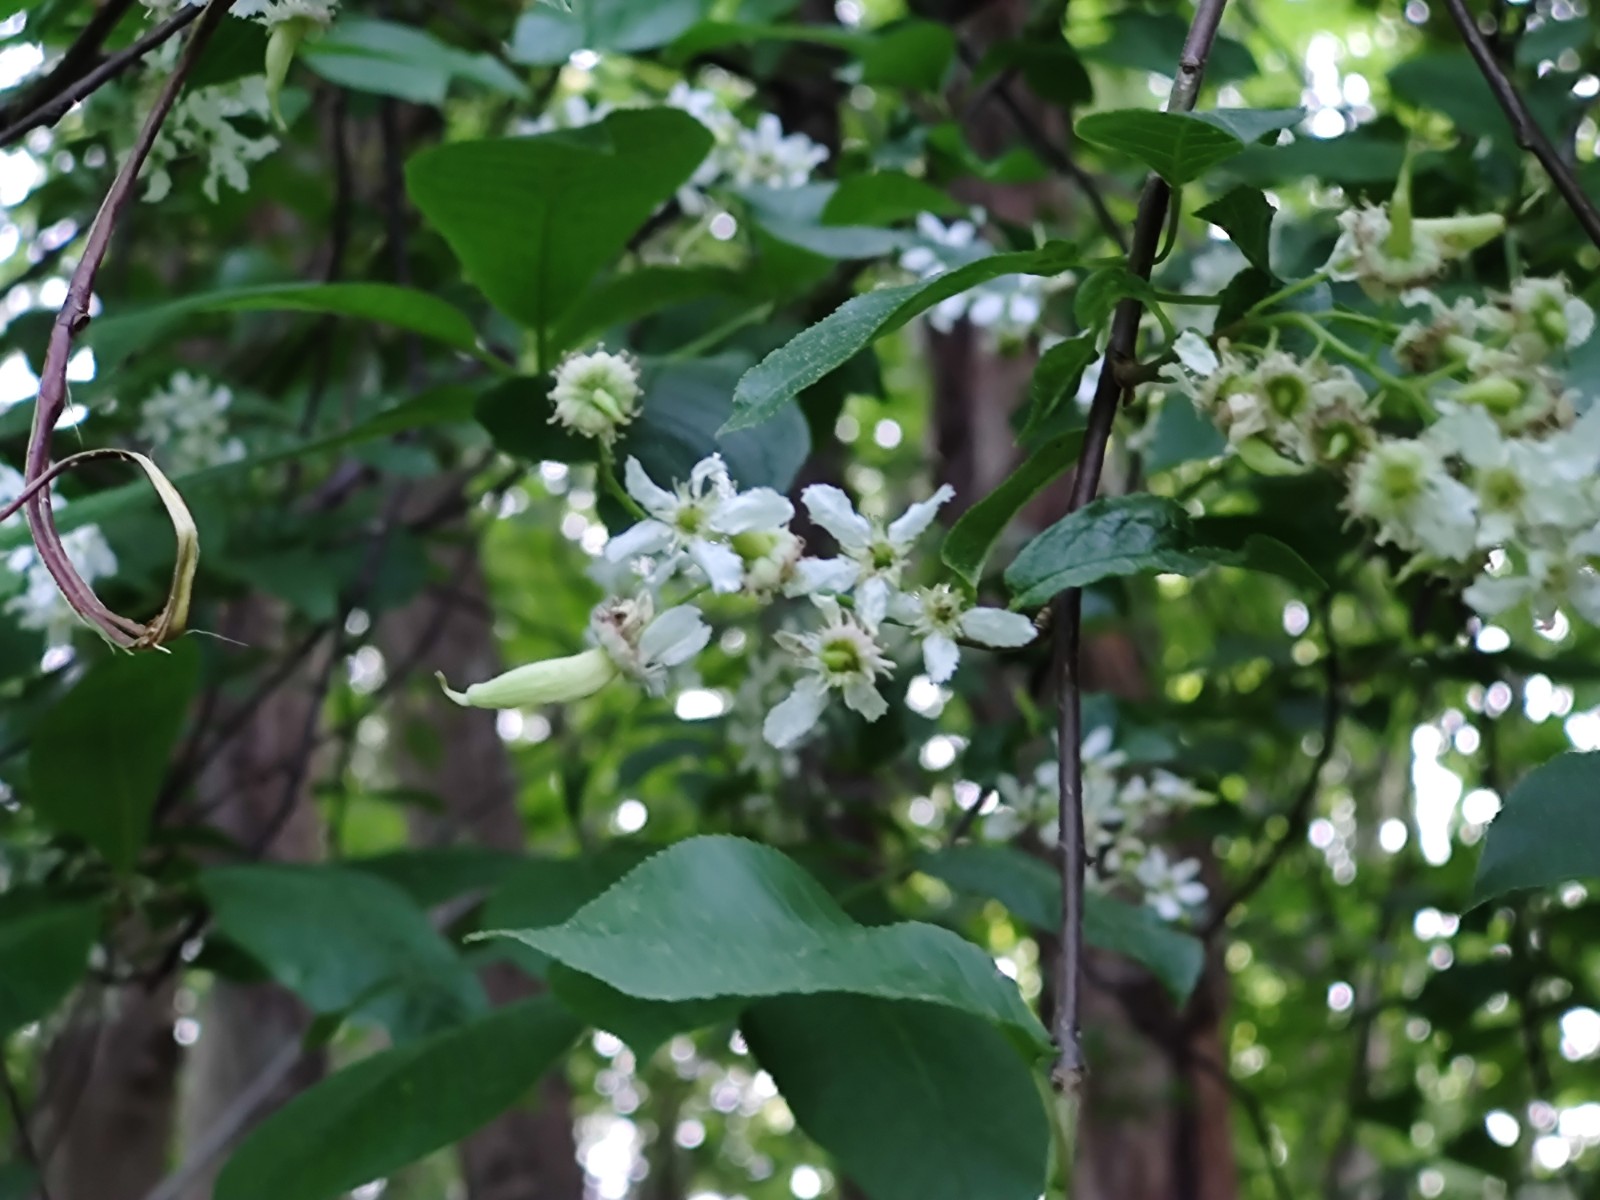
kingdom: Fungi
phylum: Ascomycota
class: Taphrinomycetes
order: Taphrinales
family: Taphrinaceae
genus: Taphrina
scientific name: Taphrina padi
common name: Bird cherry pocket
